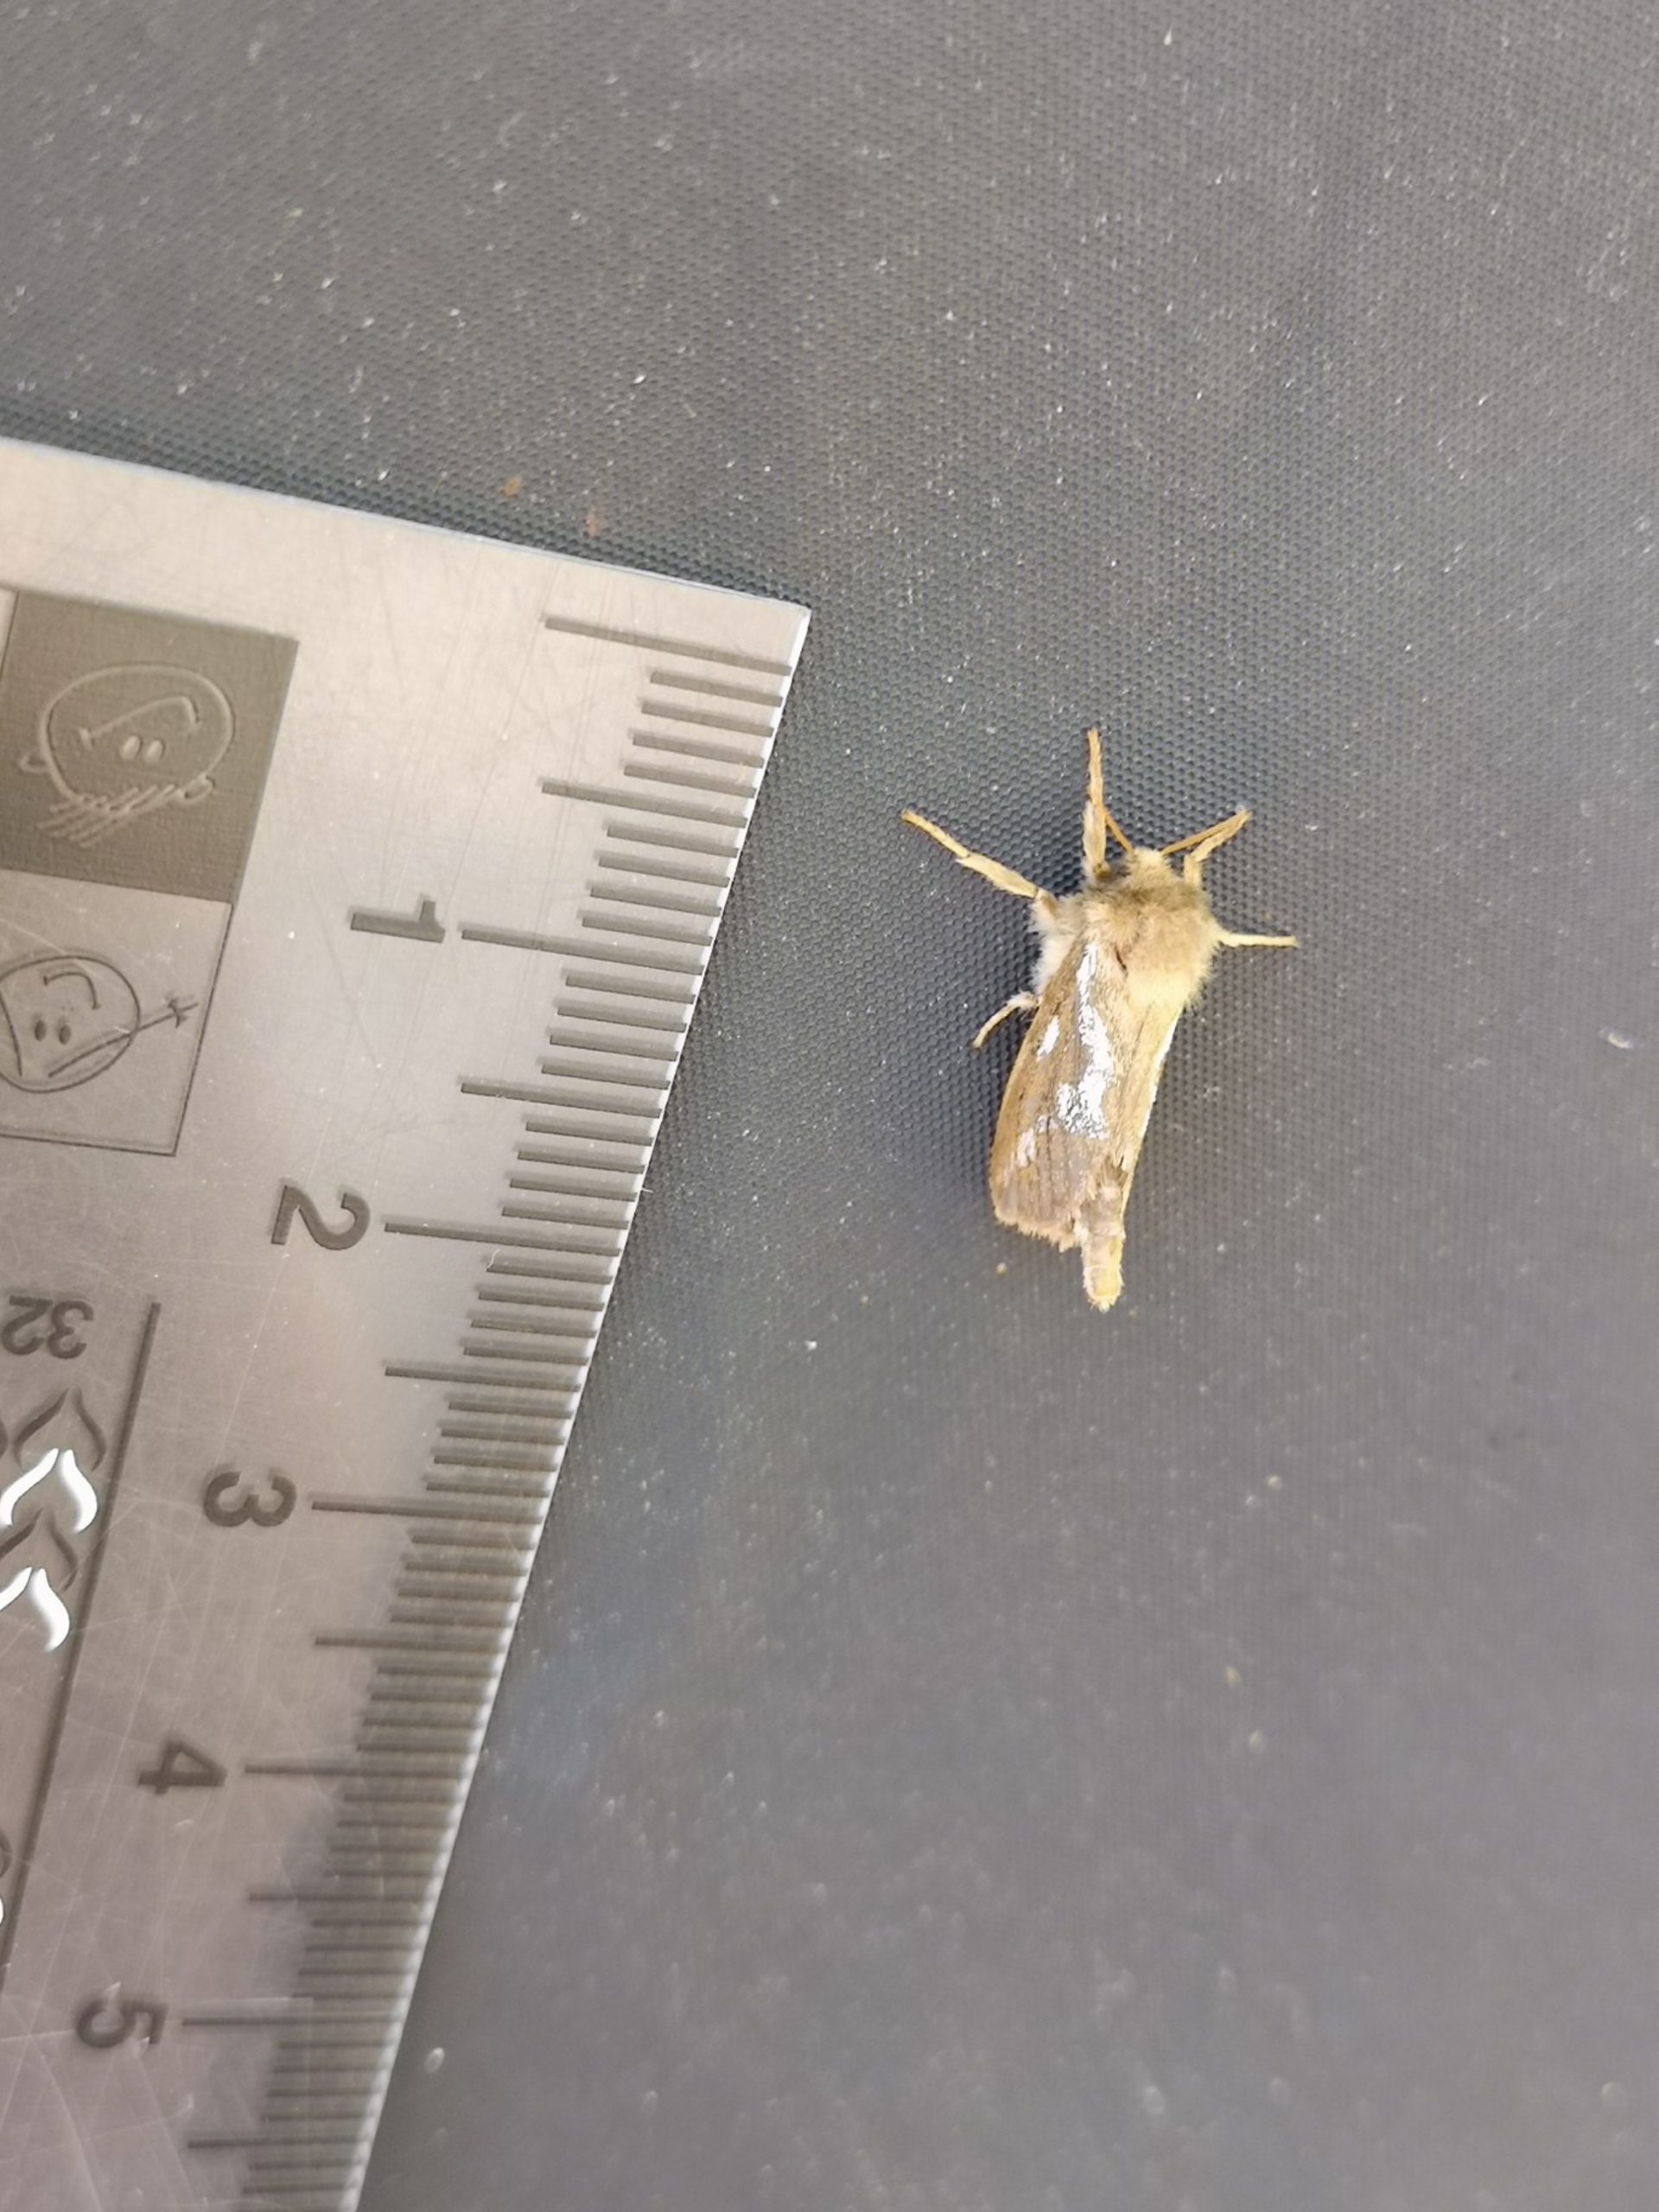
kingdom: Animalia
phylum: Arthropoda
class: Insecta
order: Lepidoptera
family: Hepialidae
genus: Triodia
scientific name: Triodia sylvina
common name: Skræpperodæder
